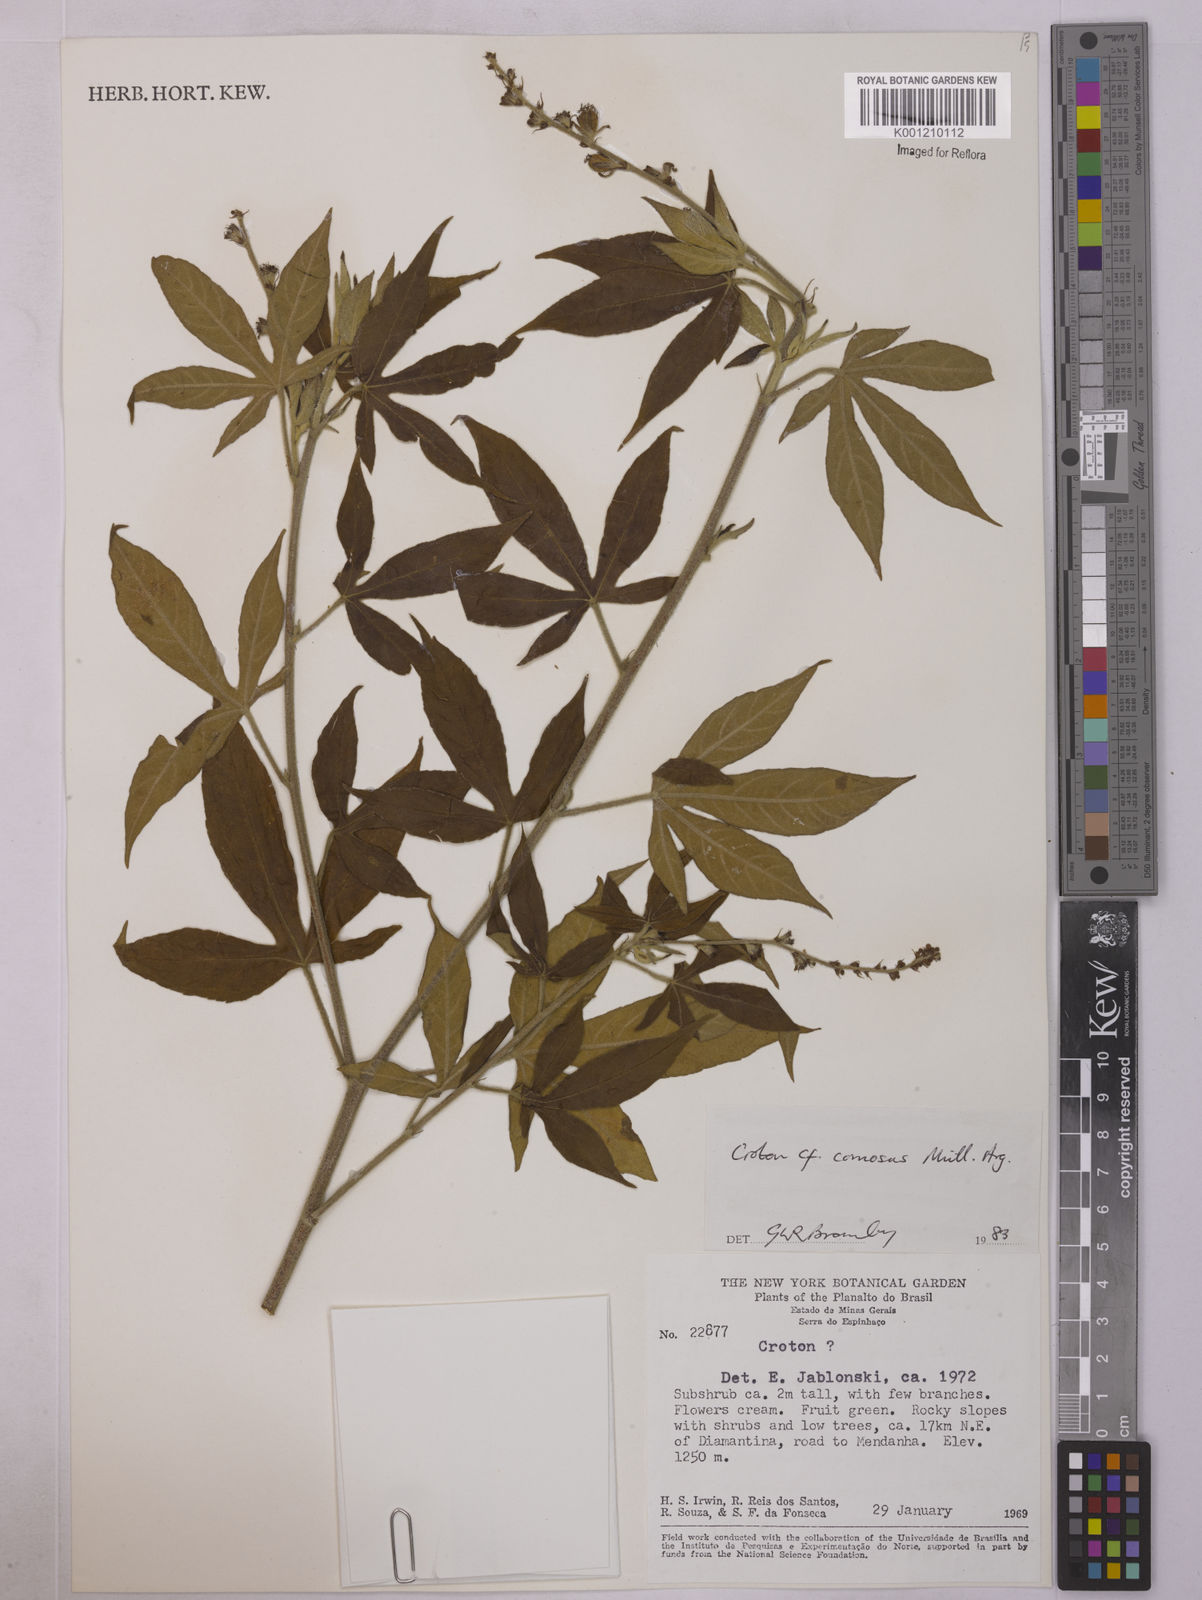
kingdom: Plantae
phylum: Tracheophyta
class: Magnoliopsida
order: Malpighiales
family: Euphorbiaceae
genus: Astraea
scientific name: Astraea
